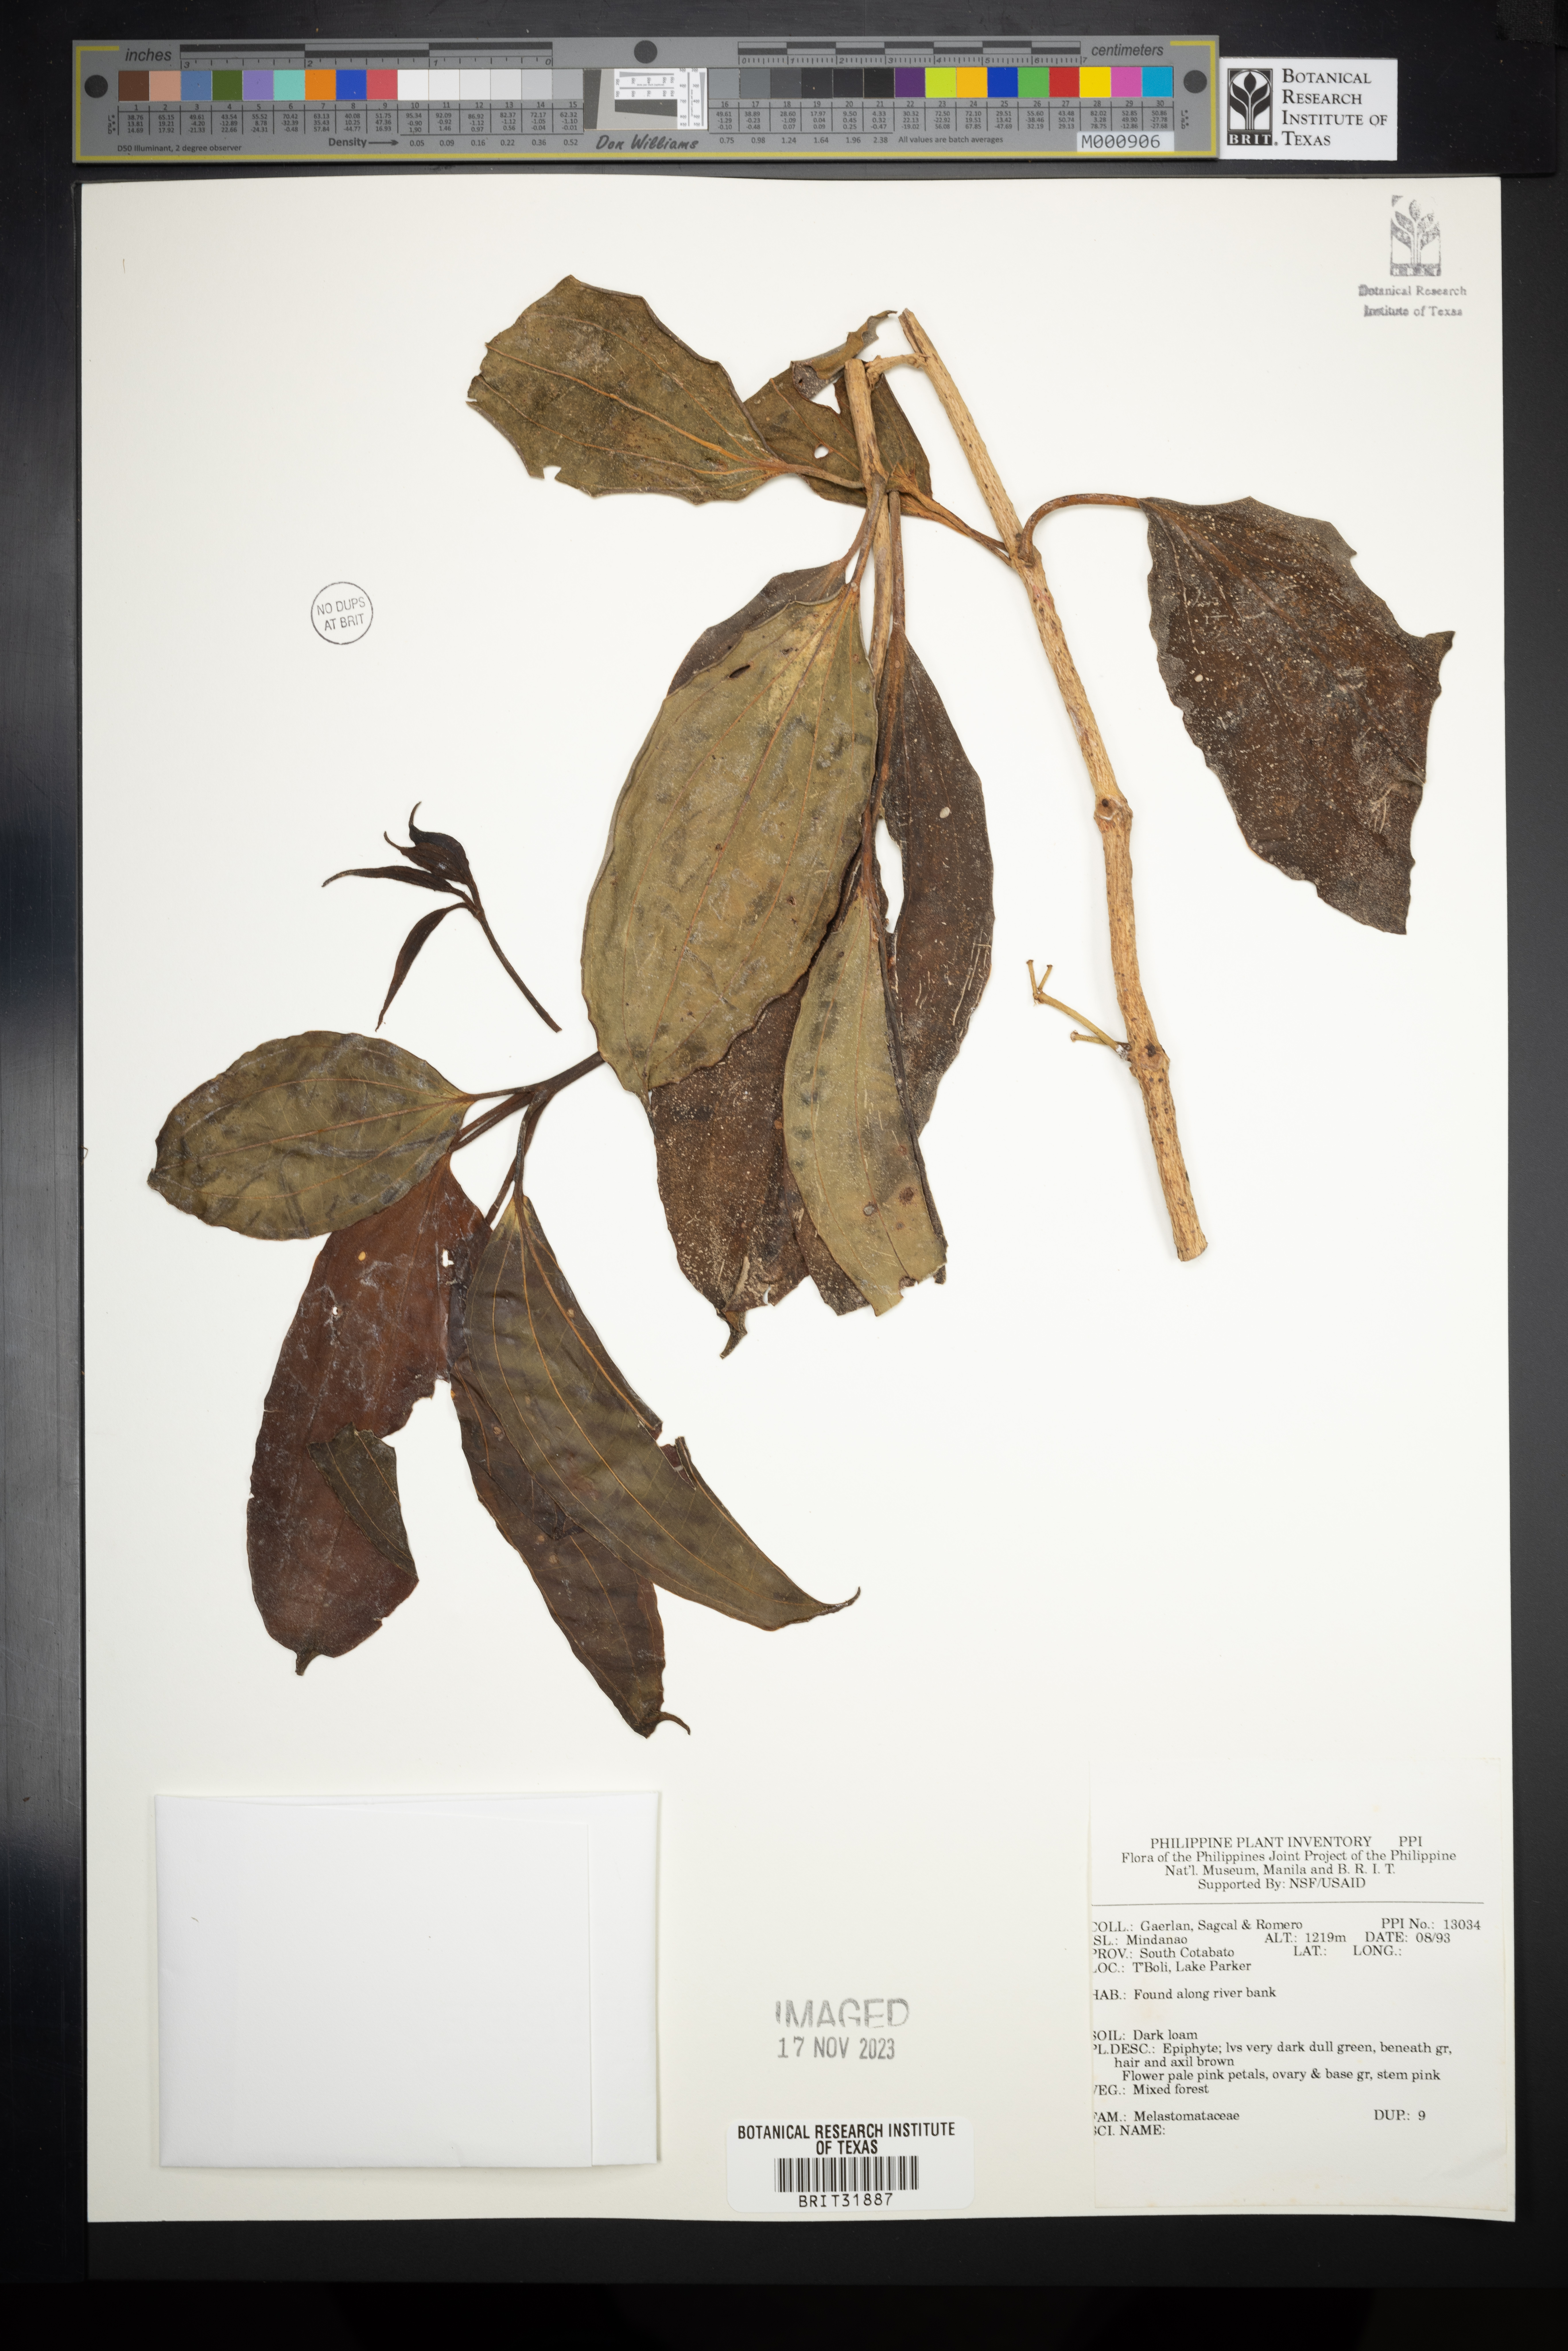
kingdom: Plantae
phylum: Tracheophyta
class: Magnoliopsida
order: Myrtales
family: Melastomataceae
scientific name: Melastomataceae
